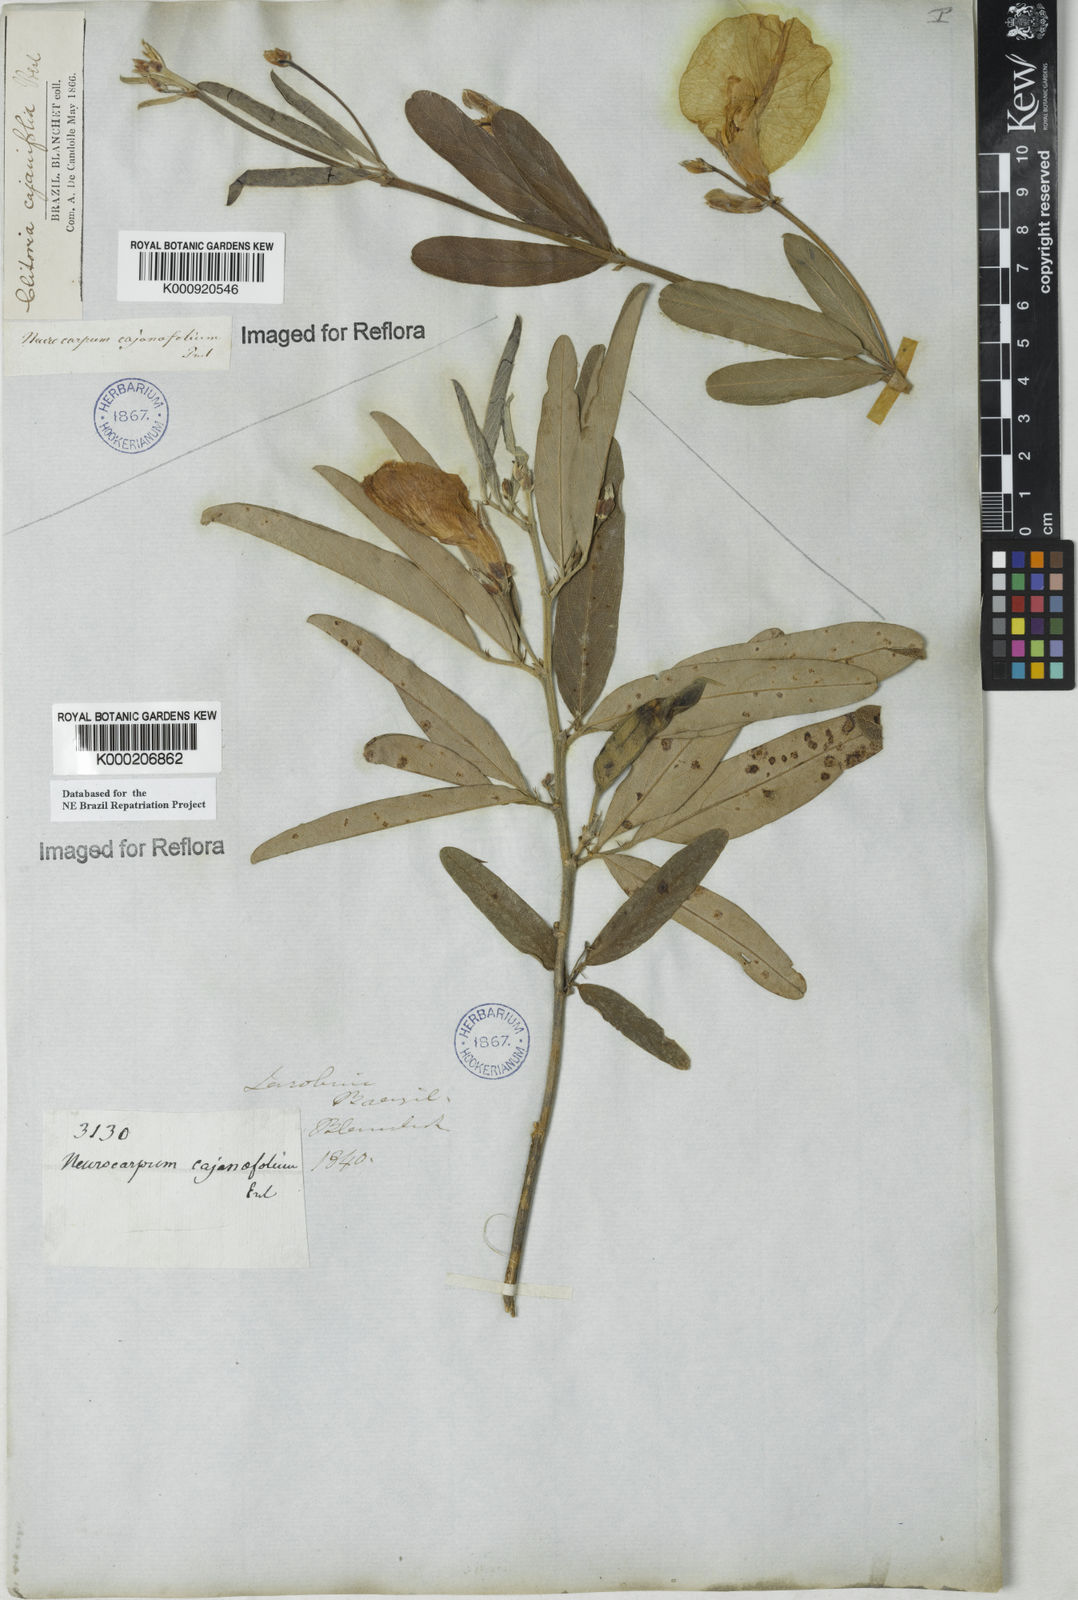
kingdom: Plantae
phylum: Tracheophyta
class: Magnoliopsida
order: Fabales
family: Fabaceae
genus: Clitoria
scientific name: Clitoria laurifolia
